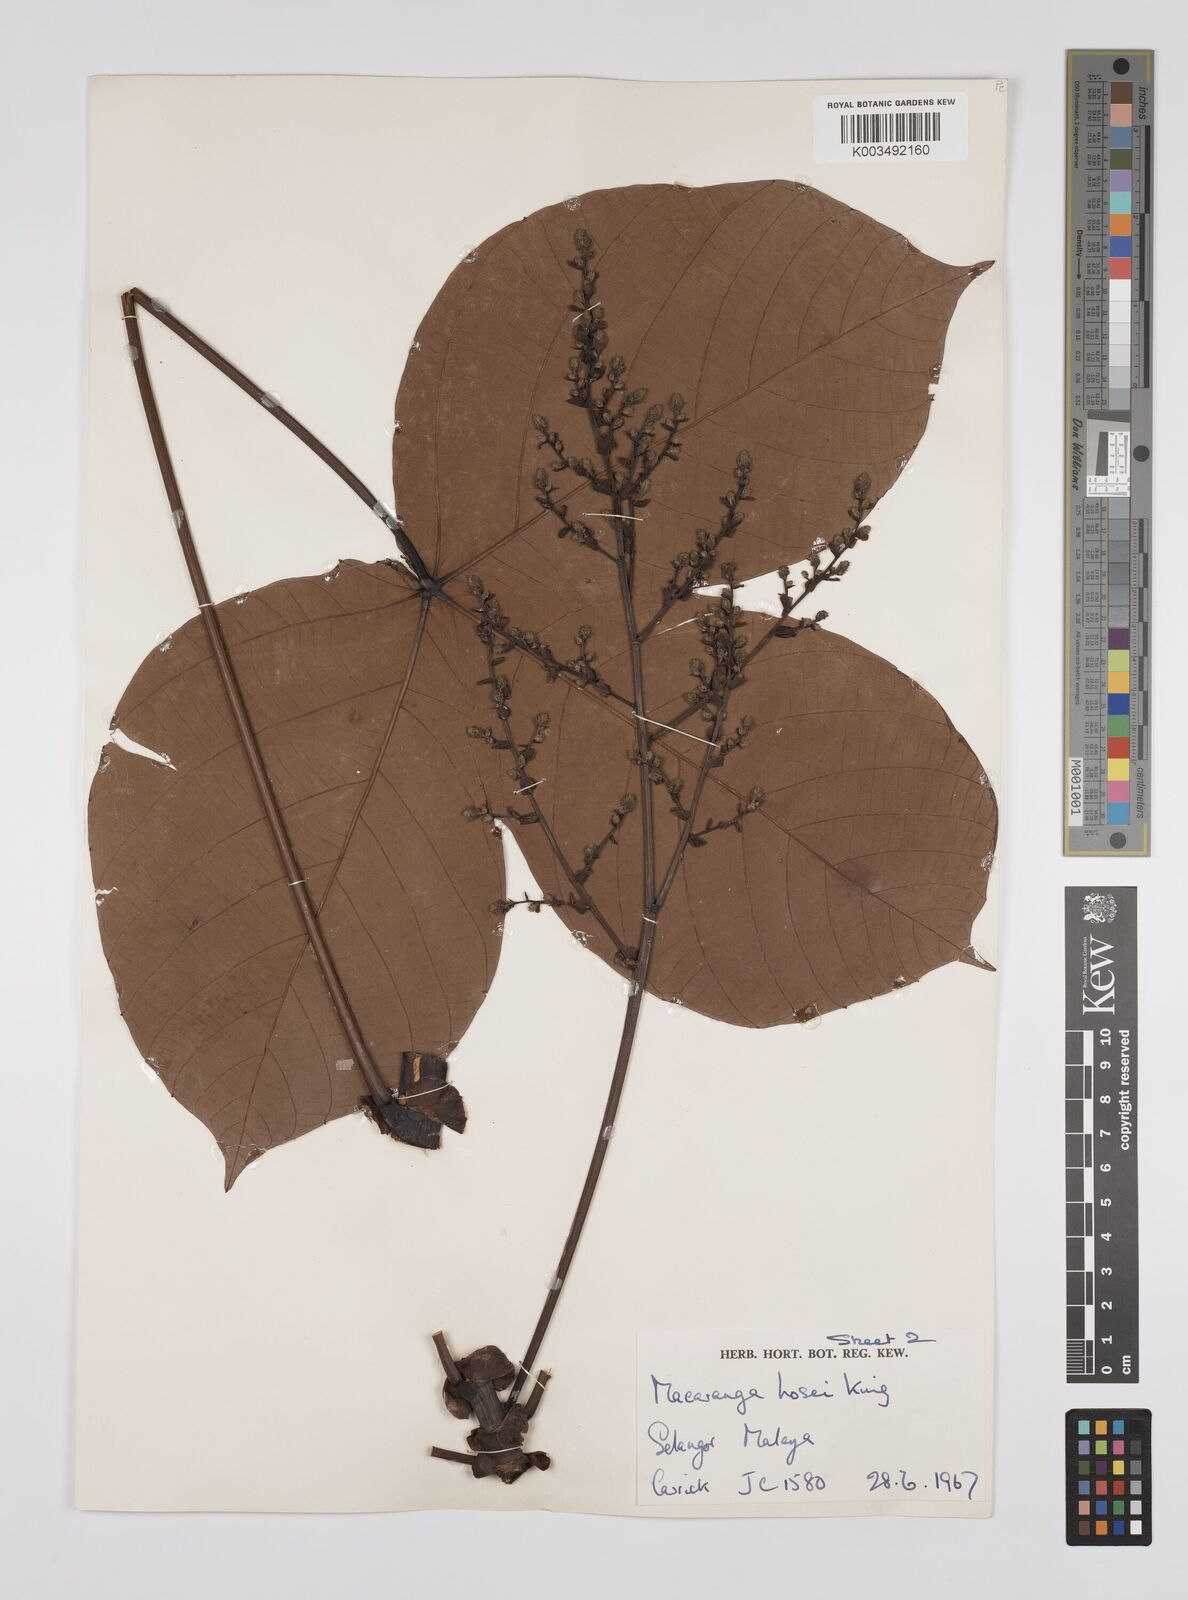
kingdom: Plantae
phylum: Tracheophyta
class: Magnoliopsida
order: Malpighiales
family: Euphorbiaceae
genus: Macaranga
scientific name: Macaranga hosei
